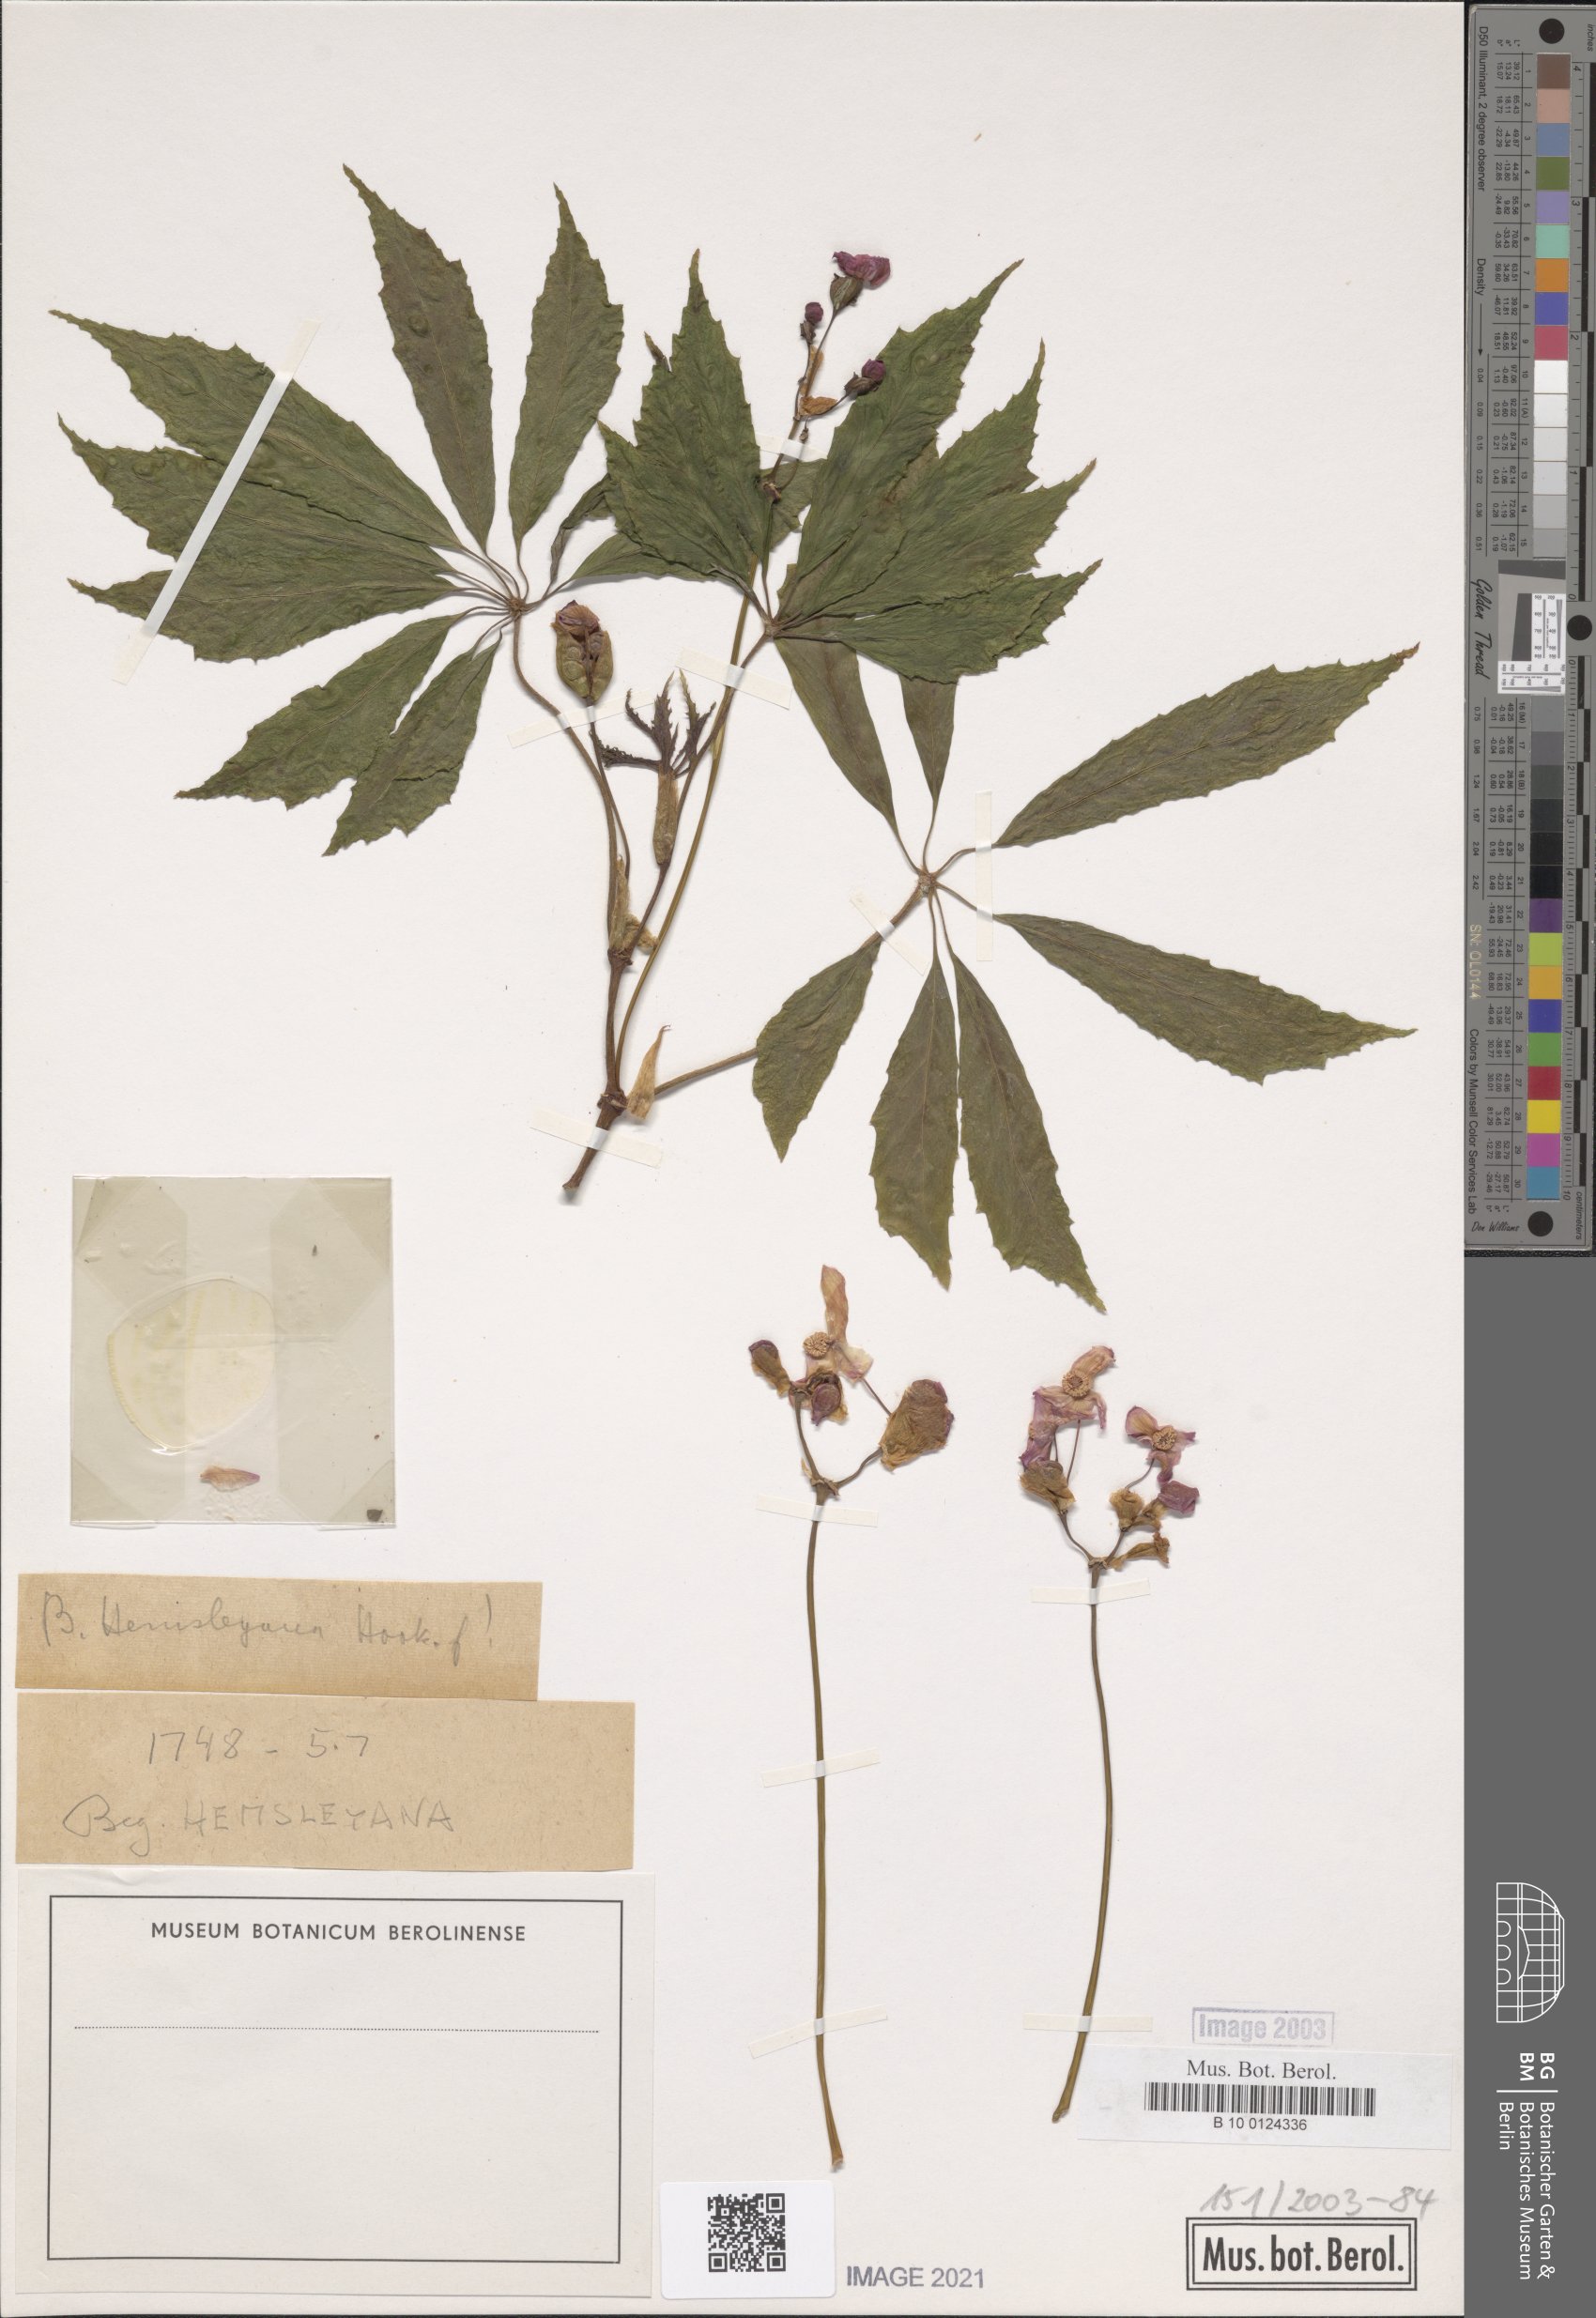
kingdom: Plantae
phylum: Tracheophyta
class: Magnoliopsida
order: Cucurbitales
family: Begoniaceae
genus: Begonia
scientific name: Begonia hemsleyana
